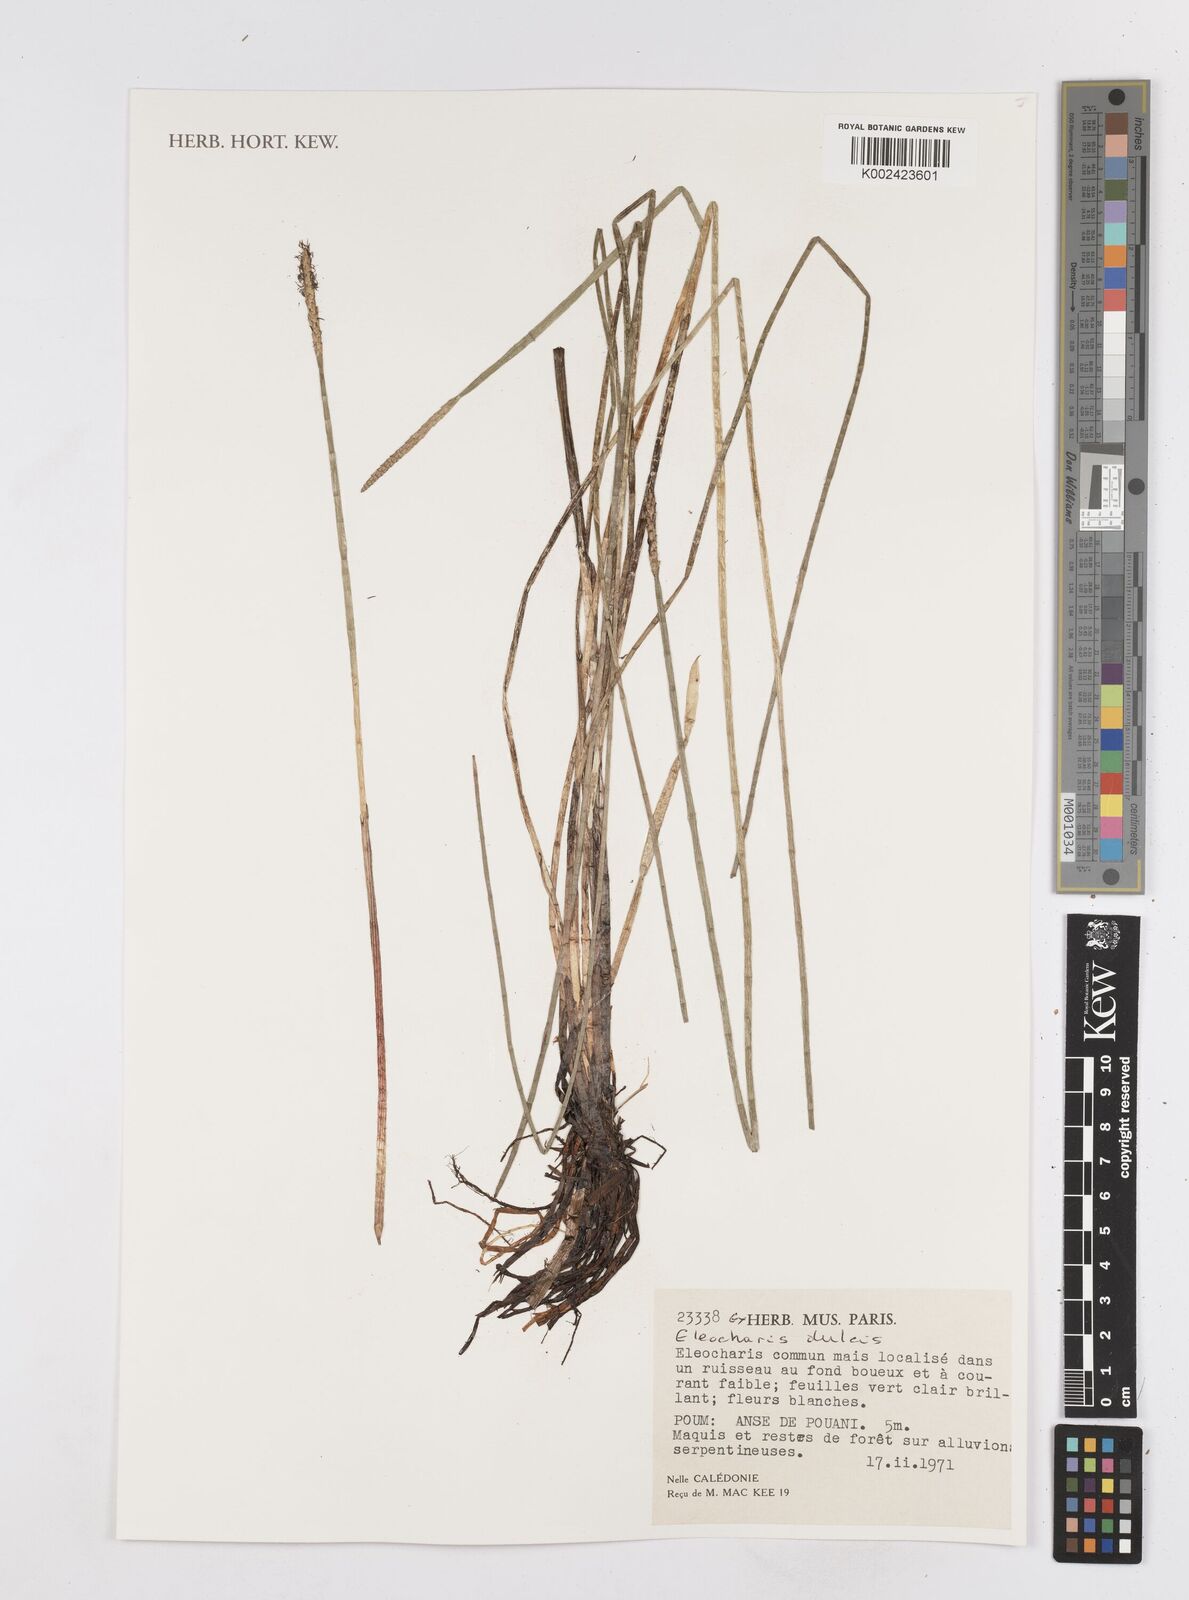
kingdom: Plantae
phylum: Tracheophyta
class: Liliopsida
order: Poales
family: Cyperaceae
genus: Eleocharis
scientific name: Eleocharis dulcis
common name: Chinese water chestnut
